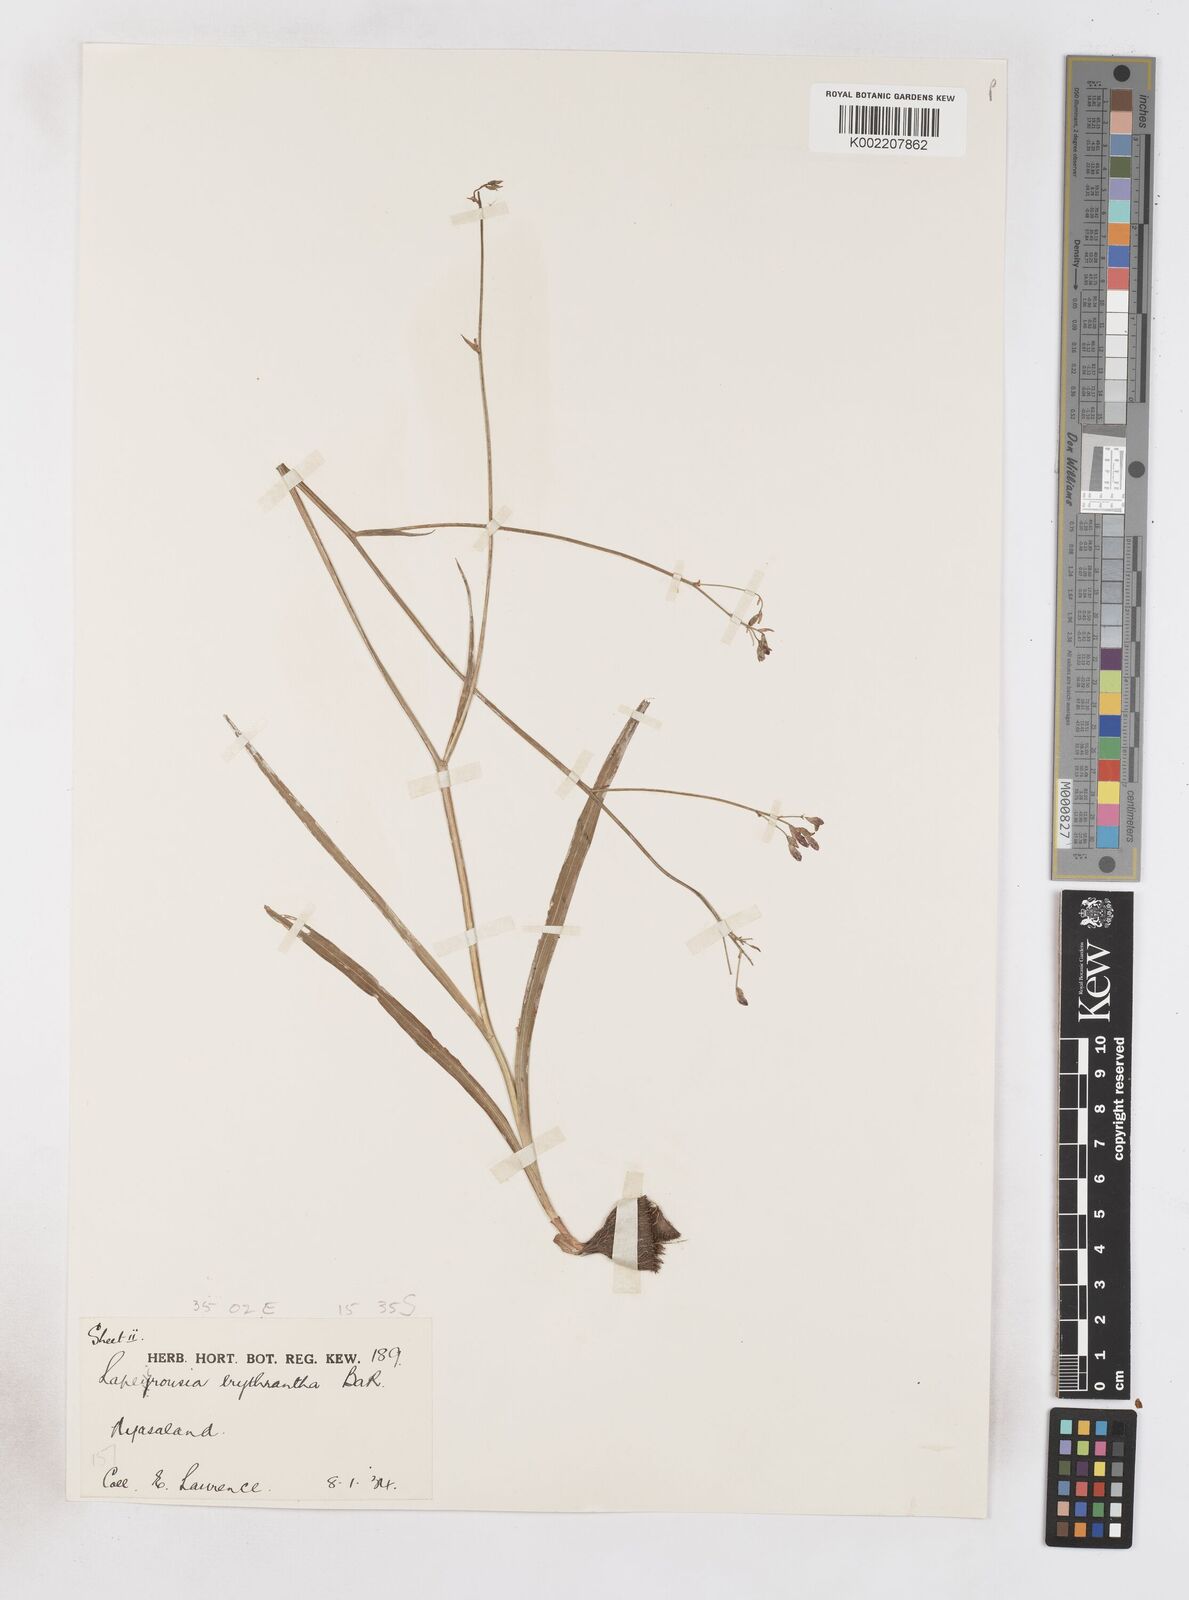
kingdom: Plantae
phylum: Tracheophyta
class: Liliopsida
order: Asparagales
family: Iridaceae
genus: Afrosolen
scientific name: Afrosolen erythranthus
